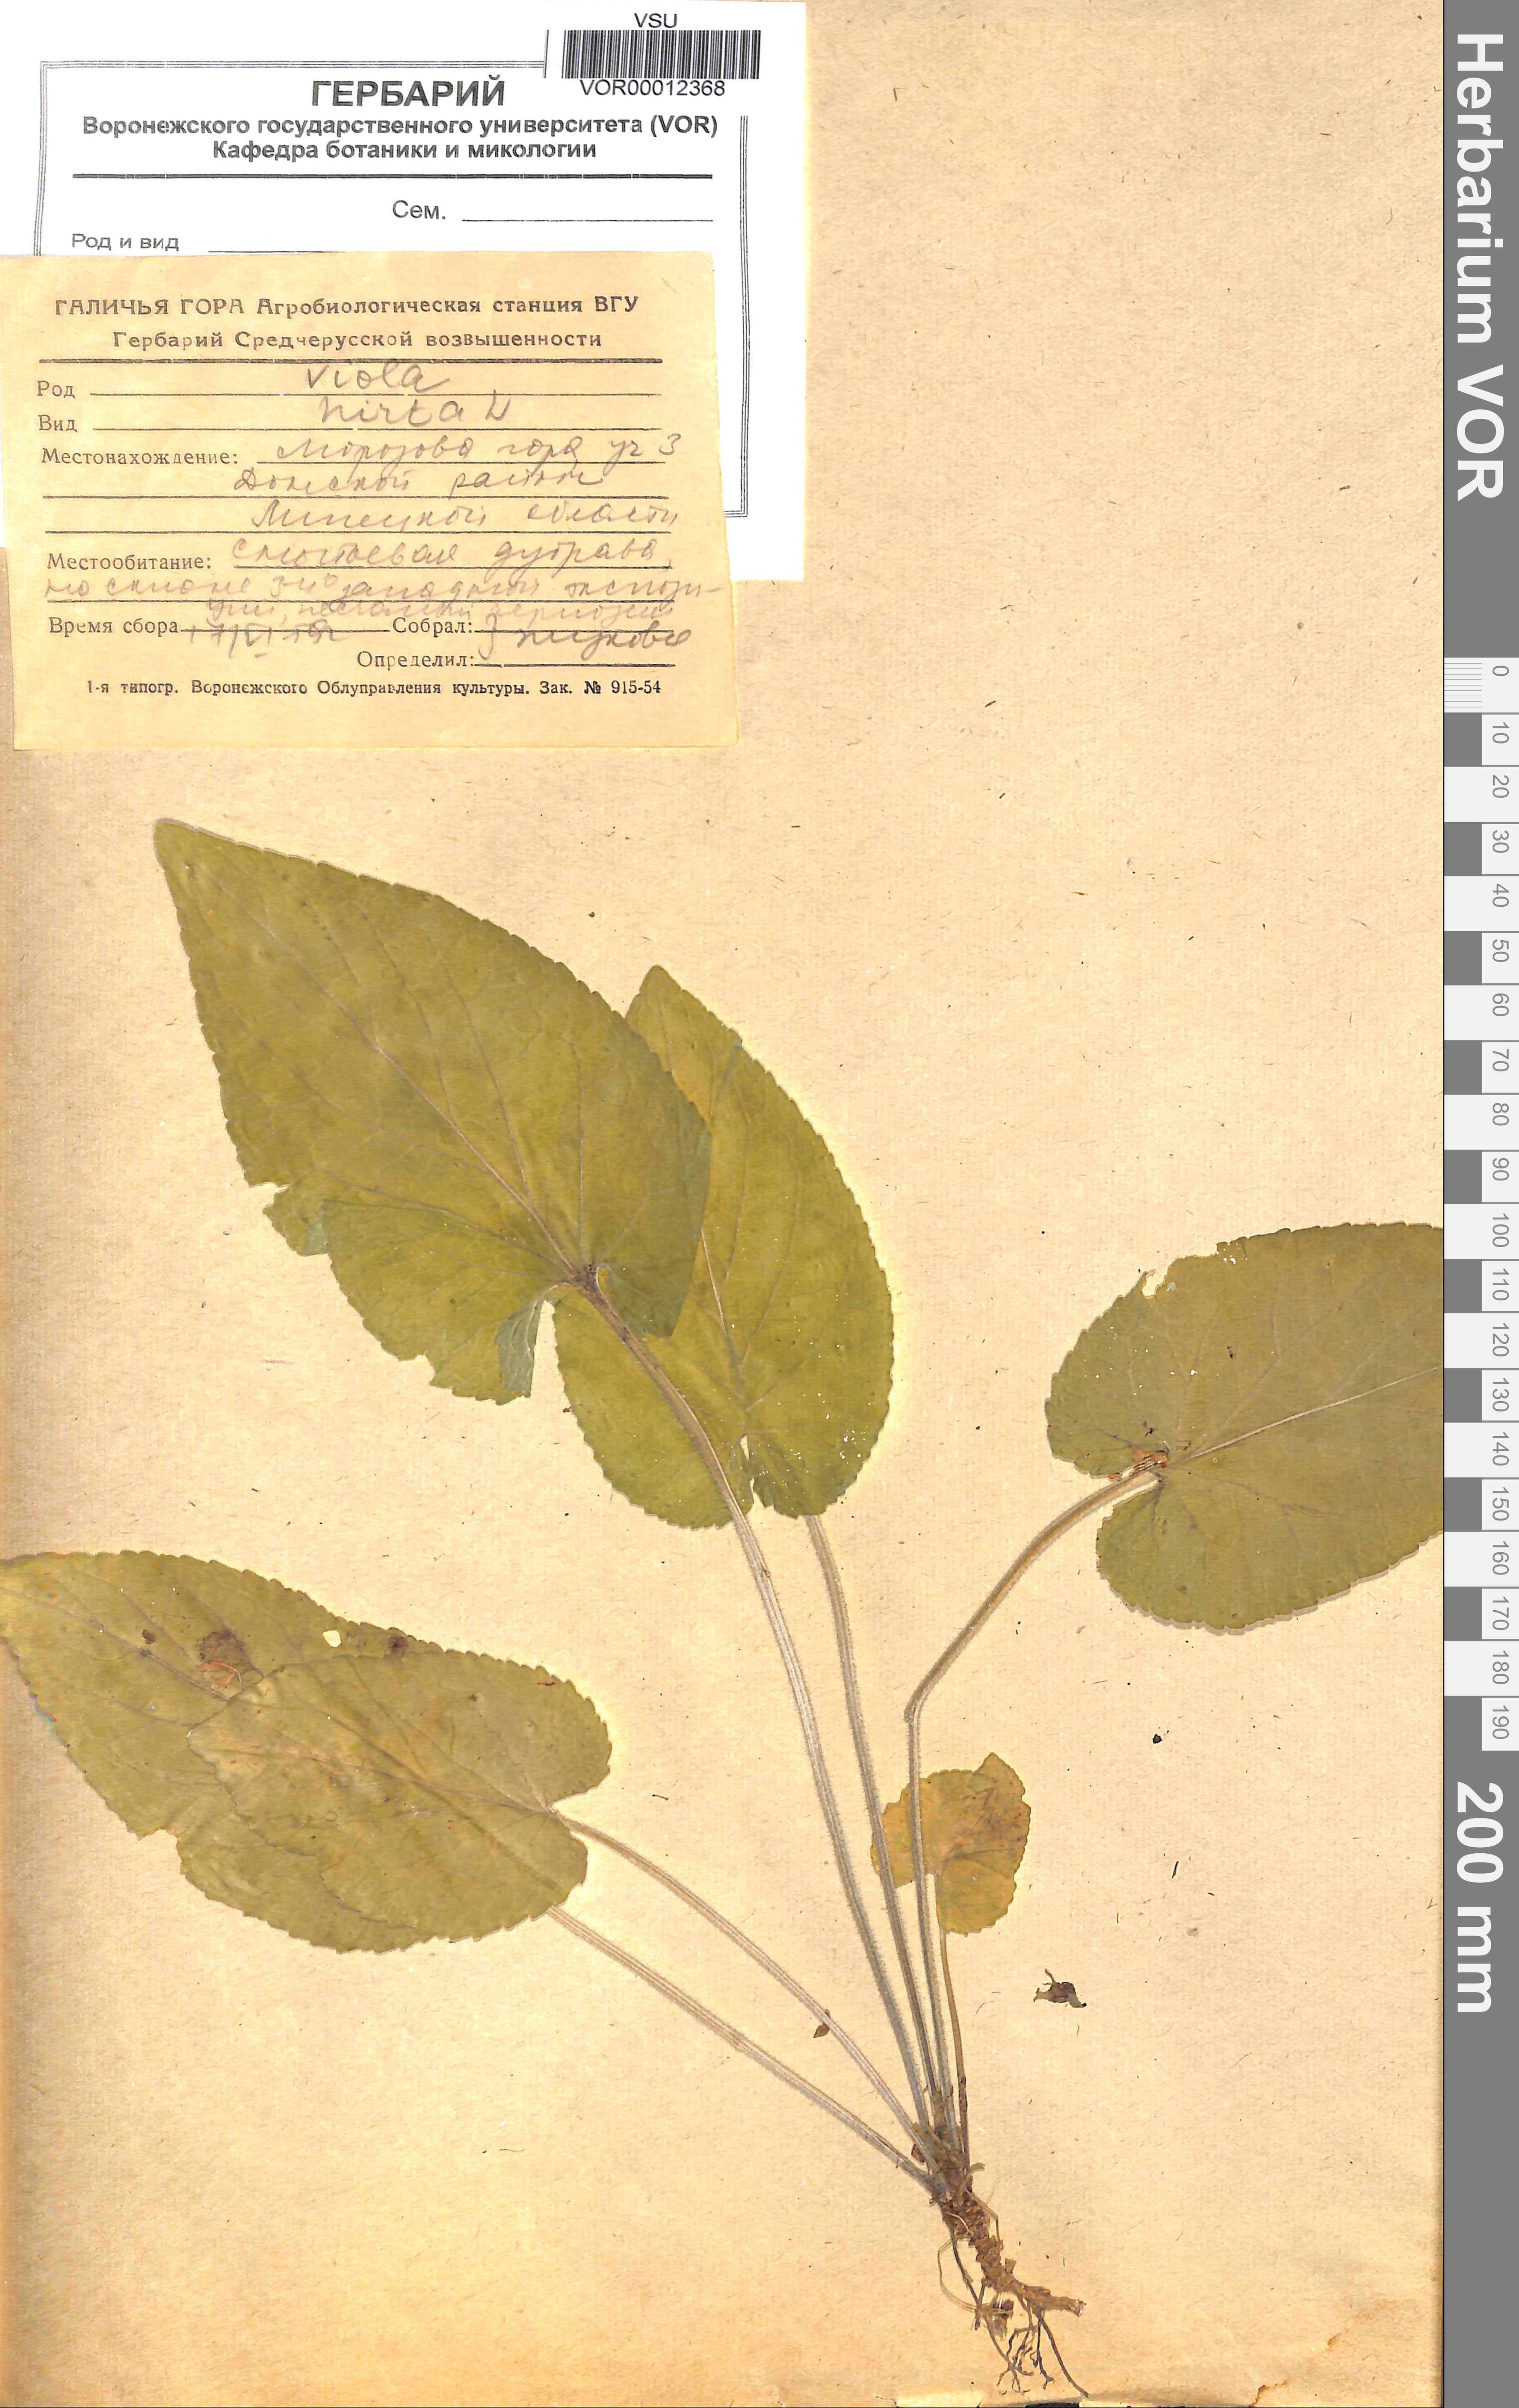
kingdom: Plantae
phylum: Tracheophyta
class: Magnoliopsida
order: Malpighiales
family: Violaceae
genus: Viola
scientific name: Viola hirta
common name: Hairy violet
